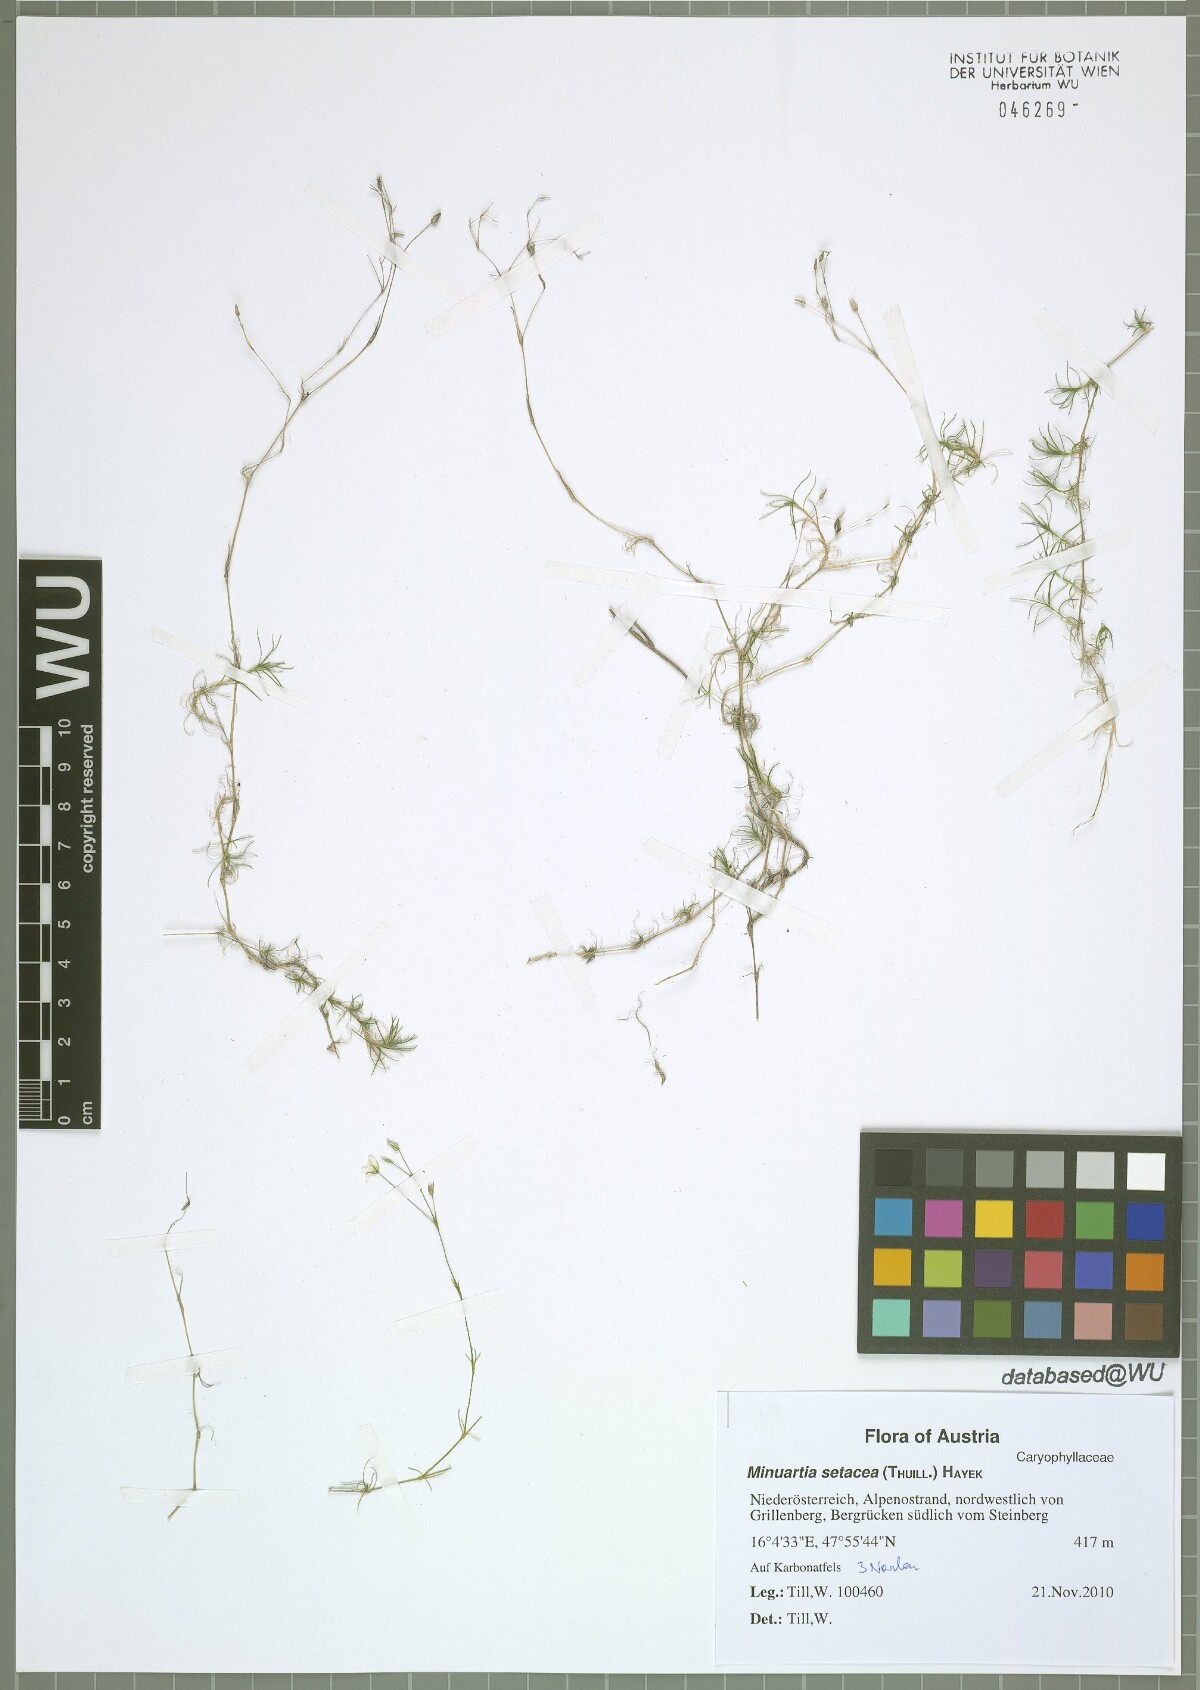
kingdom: Plantae
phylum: Tracheophyta
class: Magnoliopsida
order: Caryophyllales
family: Caryophyllaceae
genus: Minuartia
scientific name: Minuartia setacea
